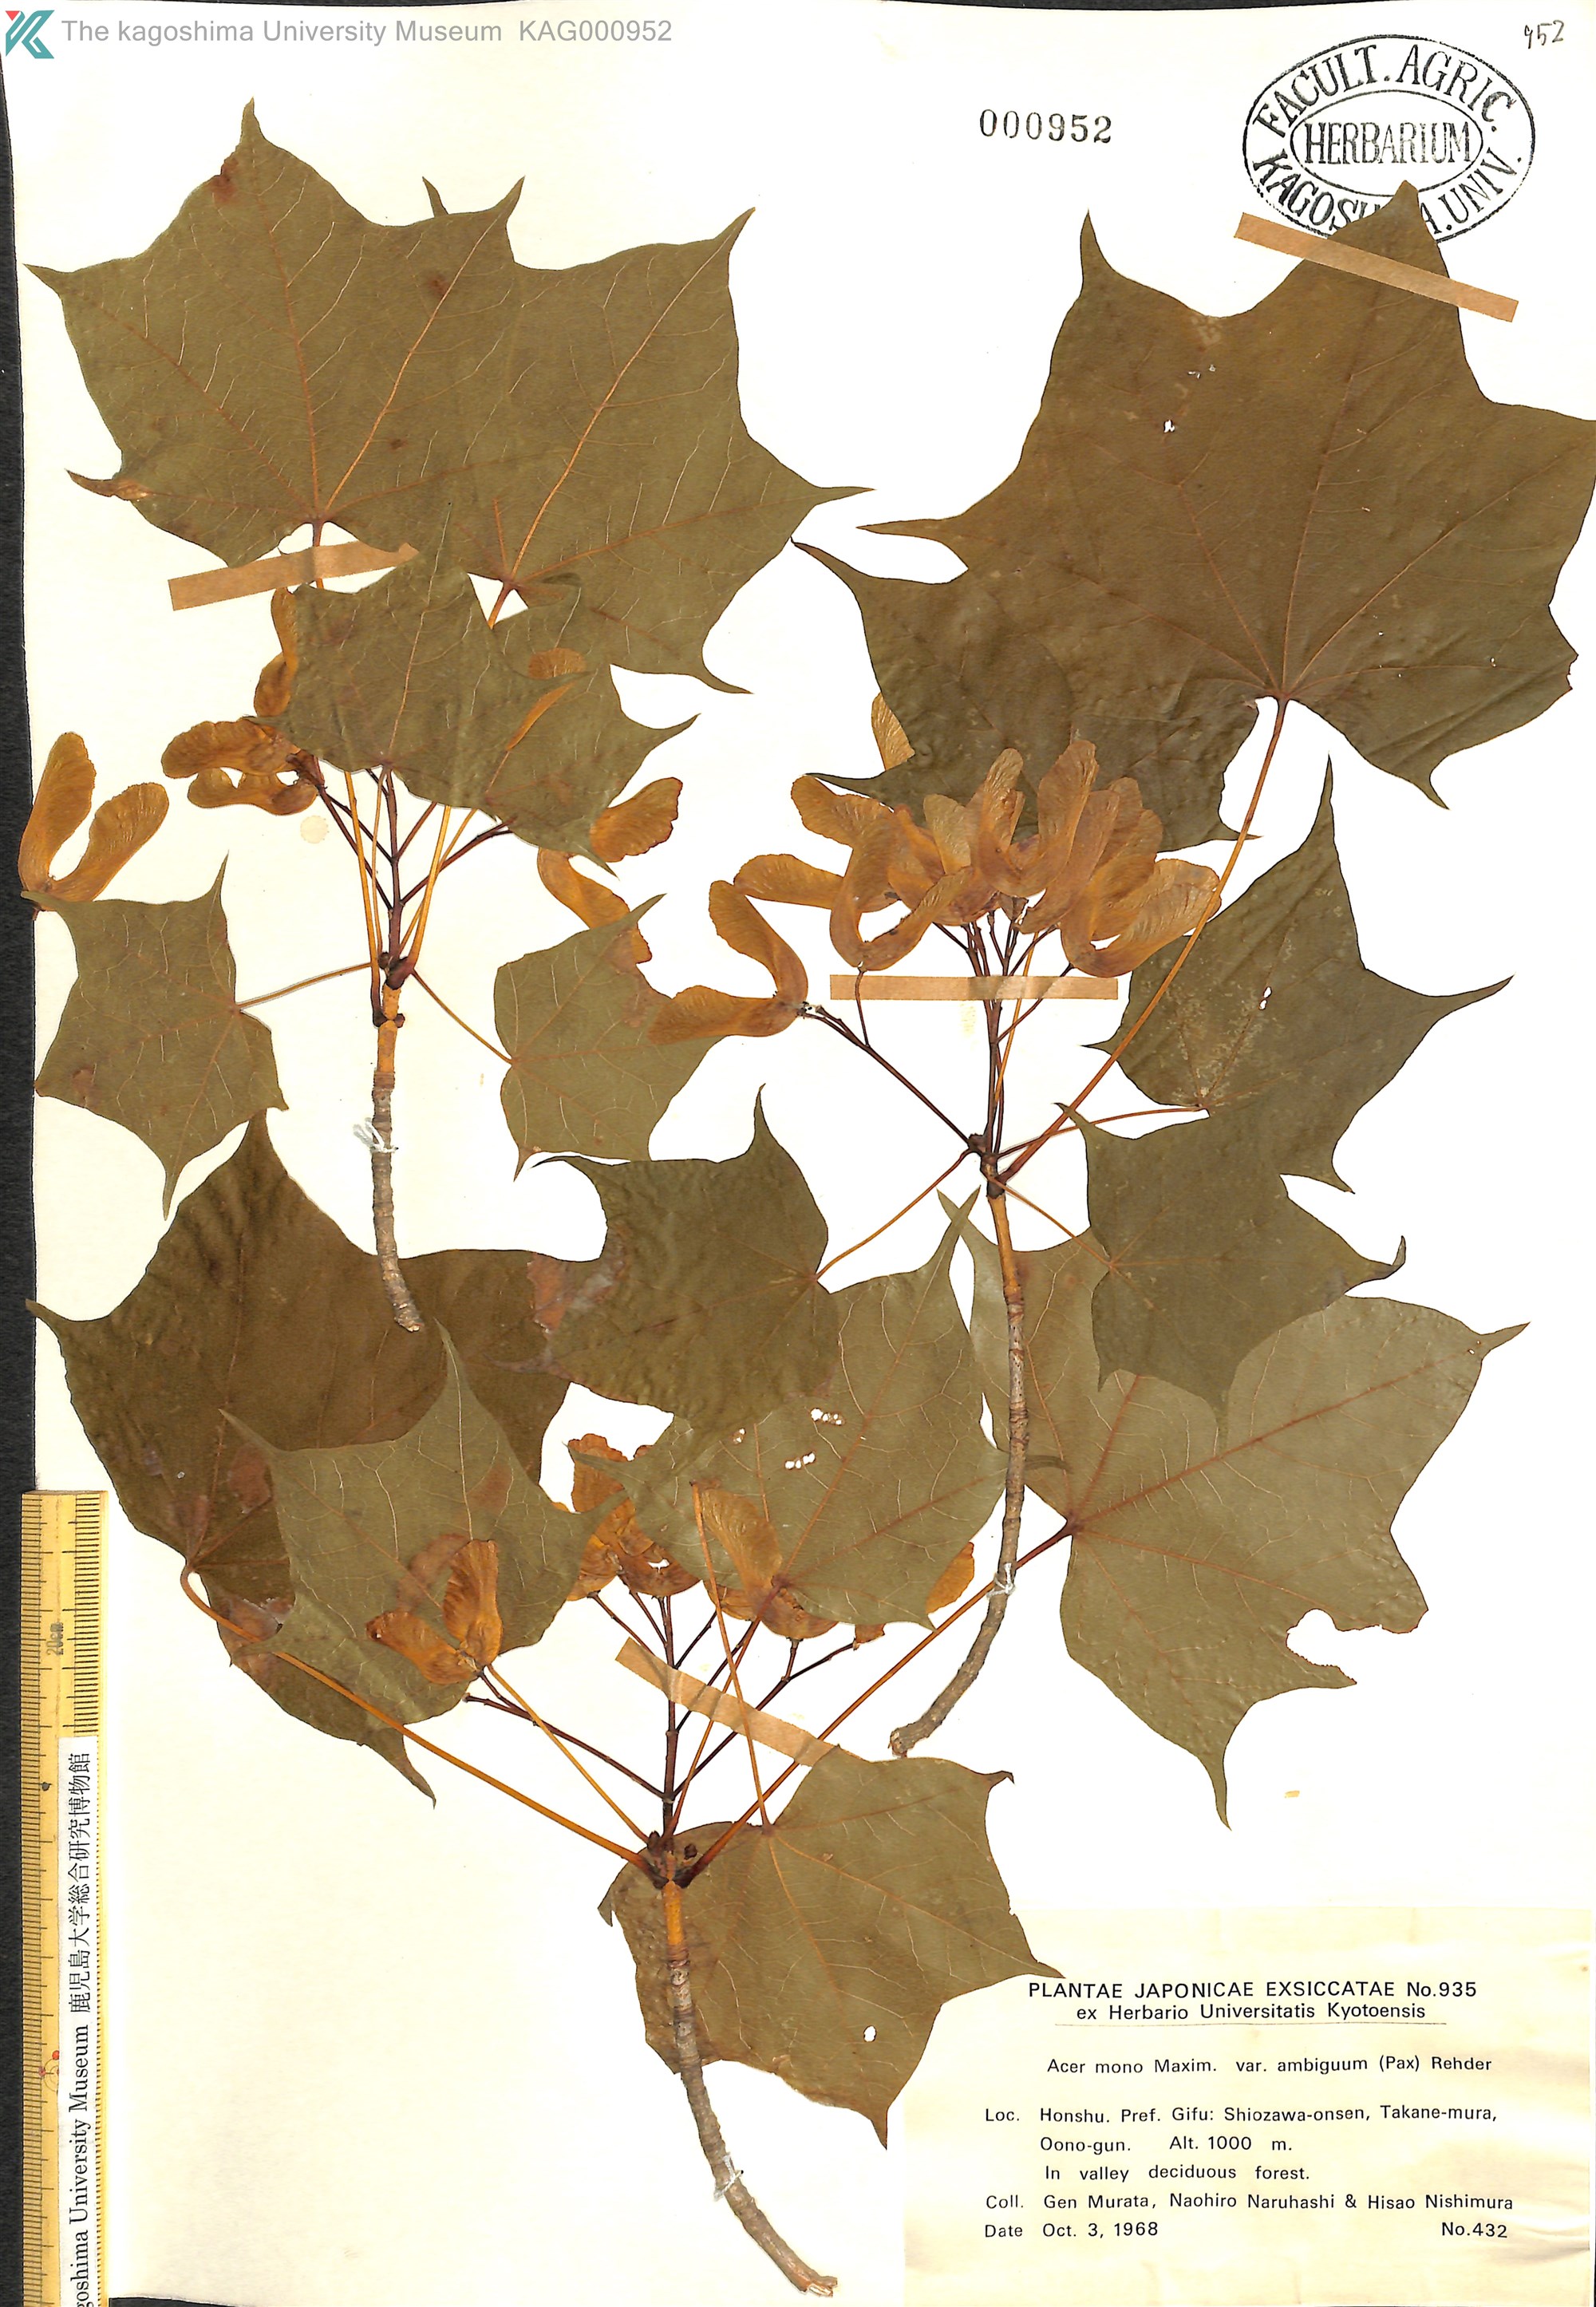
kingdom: Plantae
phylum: Tracheophyta
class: Magnoliopsida
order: Sapindales
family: Sapindaceae
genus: Acer
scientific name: Acer pictum
